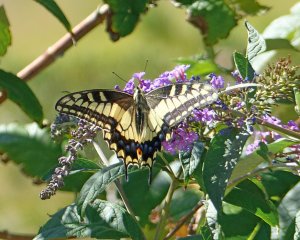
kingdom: Animalia
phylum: Arthropoda
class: Insecta
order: Lepidoptera
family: Papilionidae
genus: Papilio
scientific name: Papilio zelicaon
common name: Anise Swallowtail
